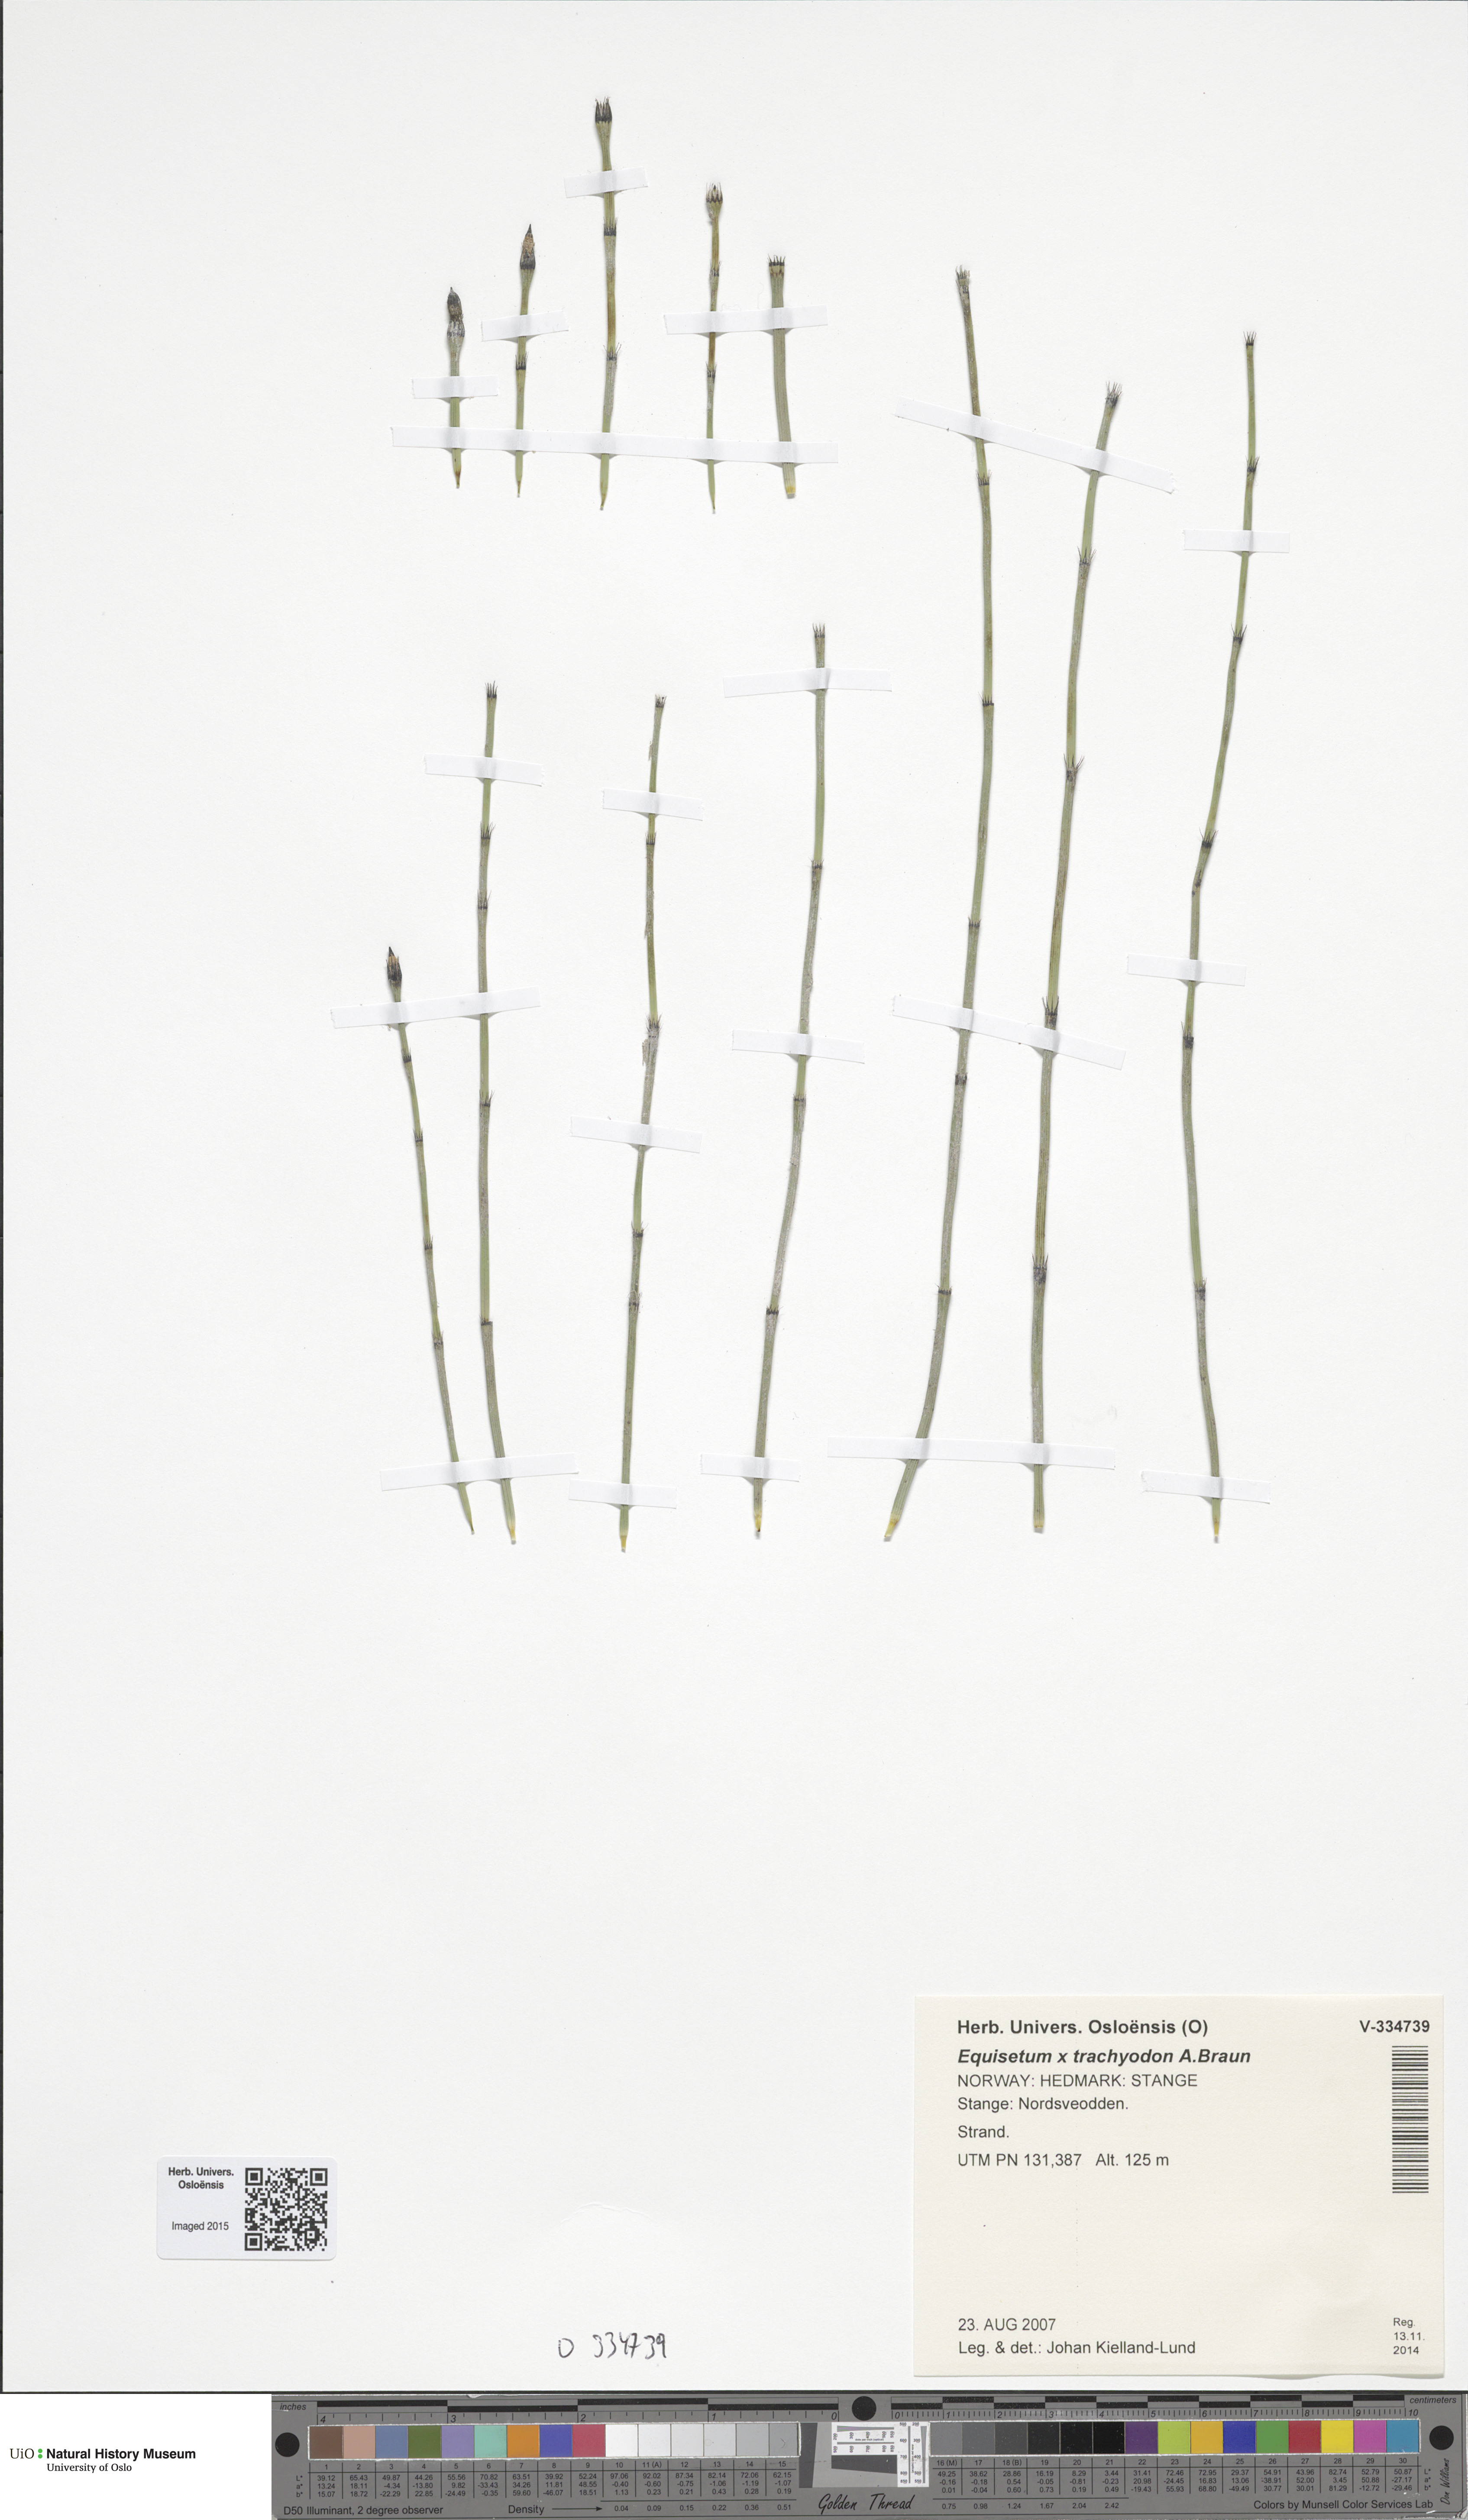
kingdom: Plantae
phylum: Tracheophyta
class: Polypodiopsida
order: Equisetales
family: Equisetaceae
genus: Equisetum
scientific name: Equisetum trachyodon
